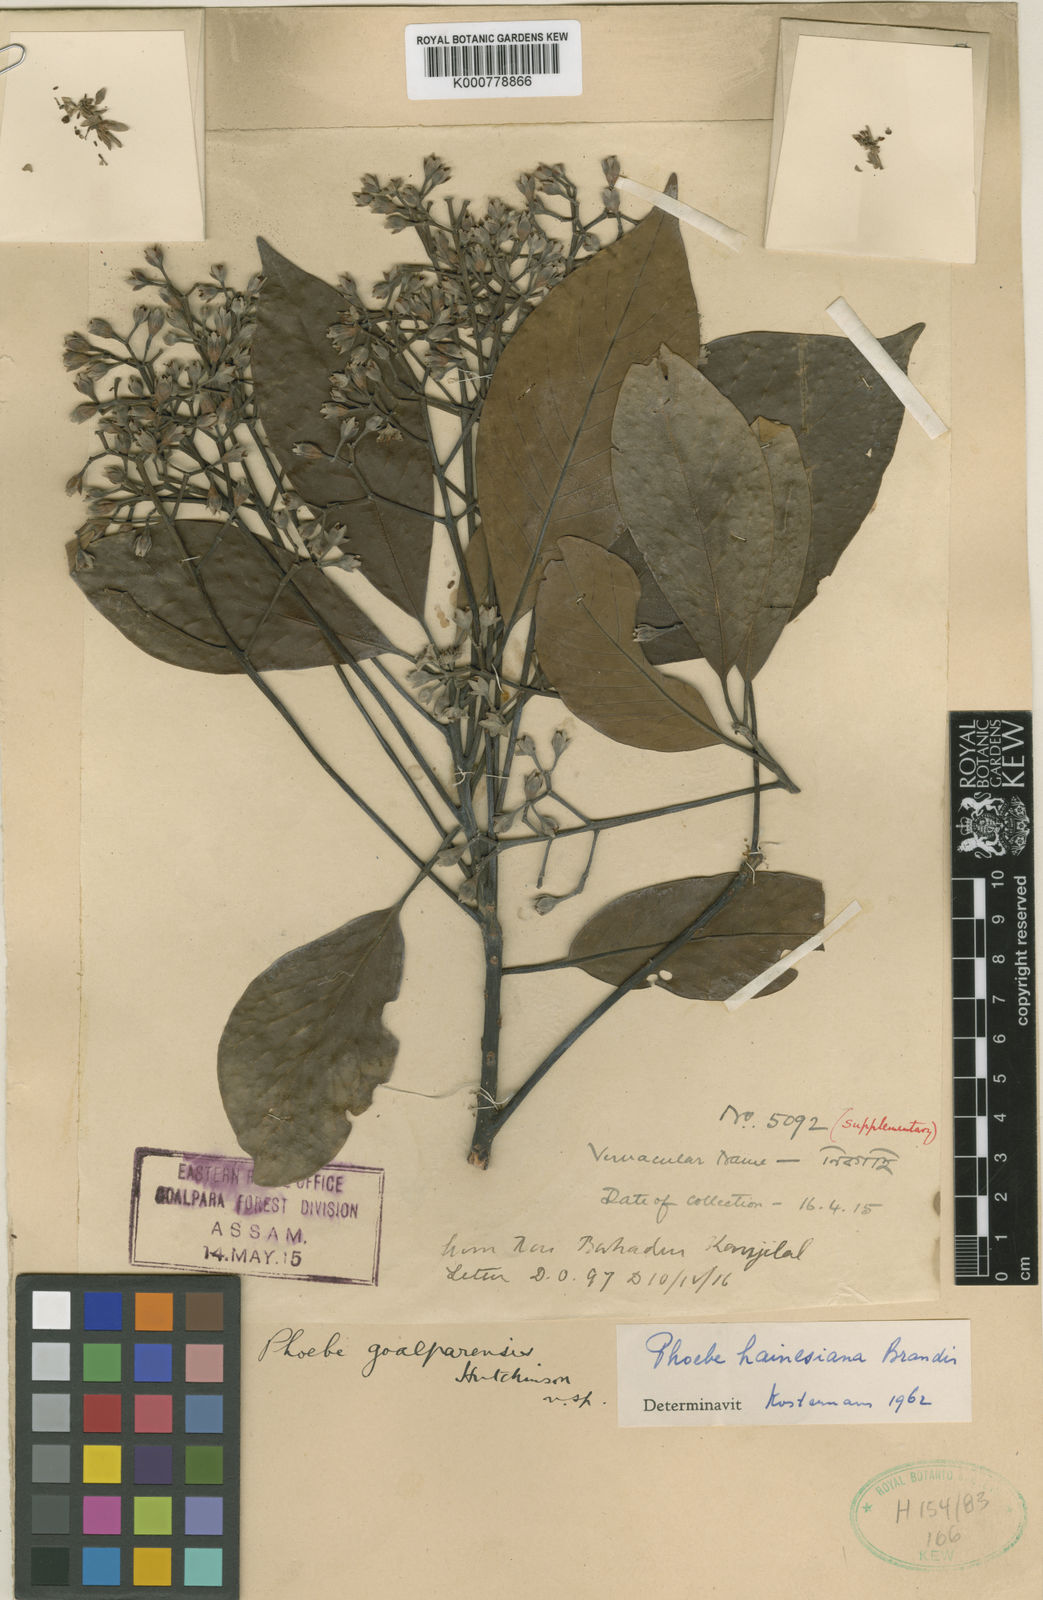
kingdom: Plantae
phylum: Tracheophyta
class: Magnoliopsida
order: Laurales
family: Lauraceae
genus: Phoebe
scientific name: Phoebe bootanica
